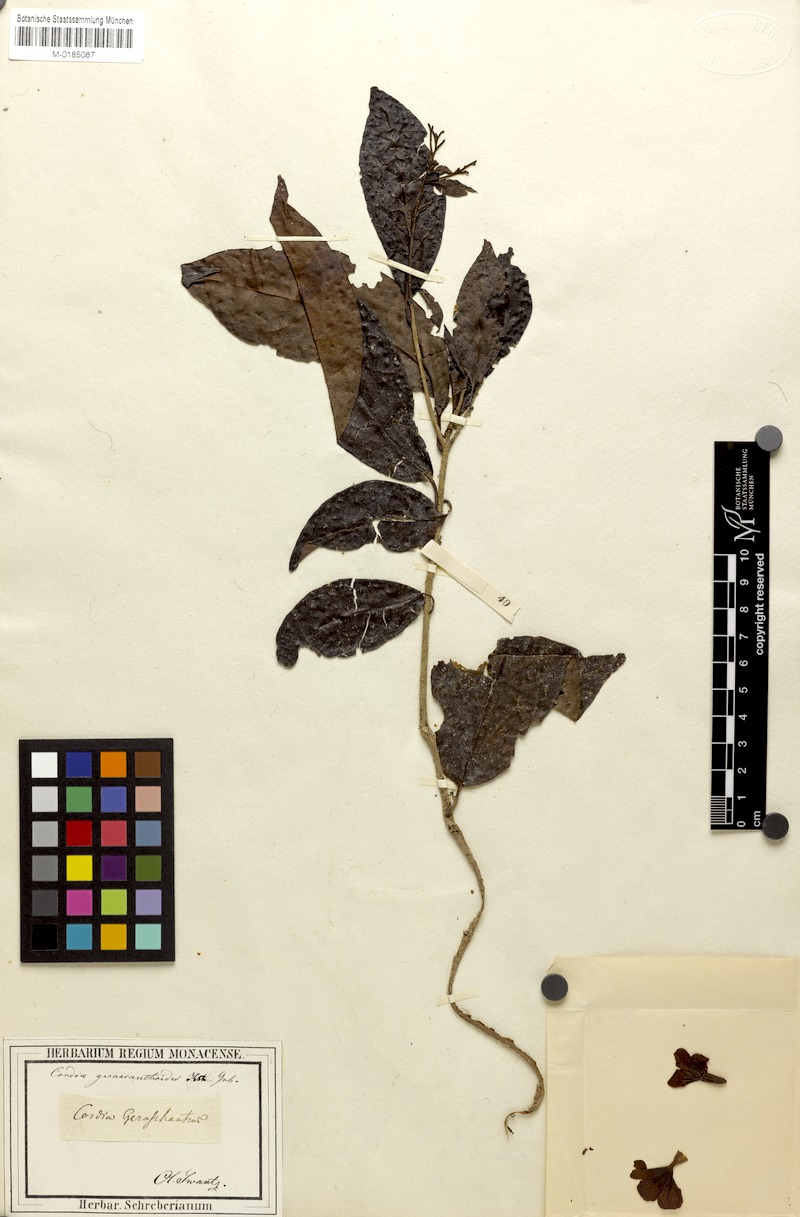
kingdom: Plantae
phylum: Tracheophyta
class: Magnoliopsida
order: Boraginales
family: Cordiaceae
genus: Cordia
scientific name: Cordia gerascanthus
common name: Baria
